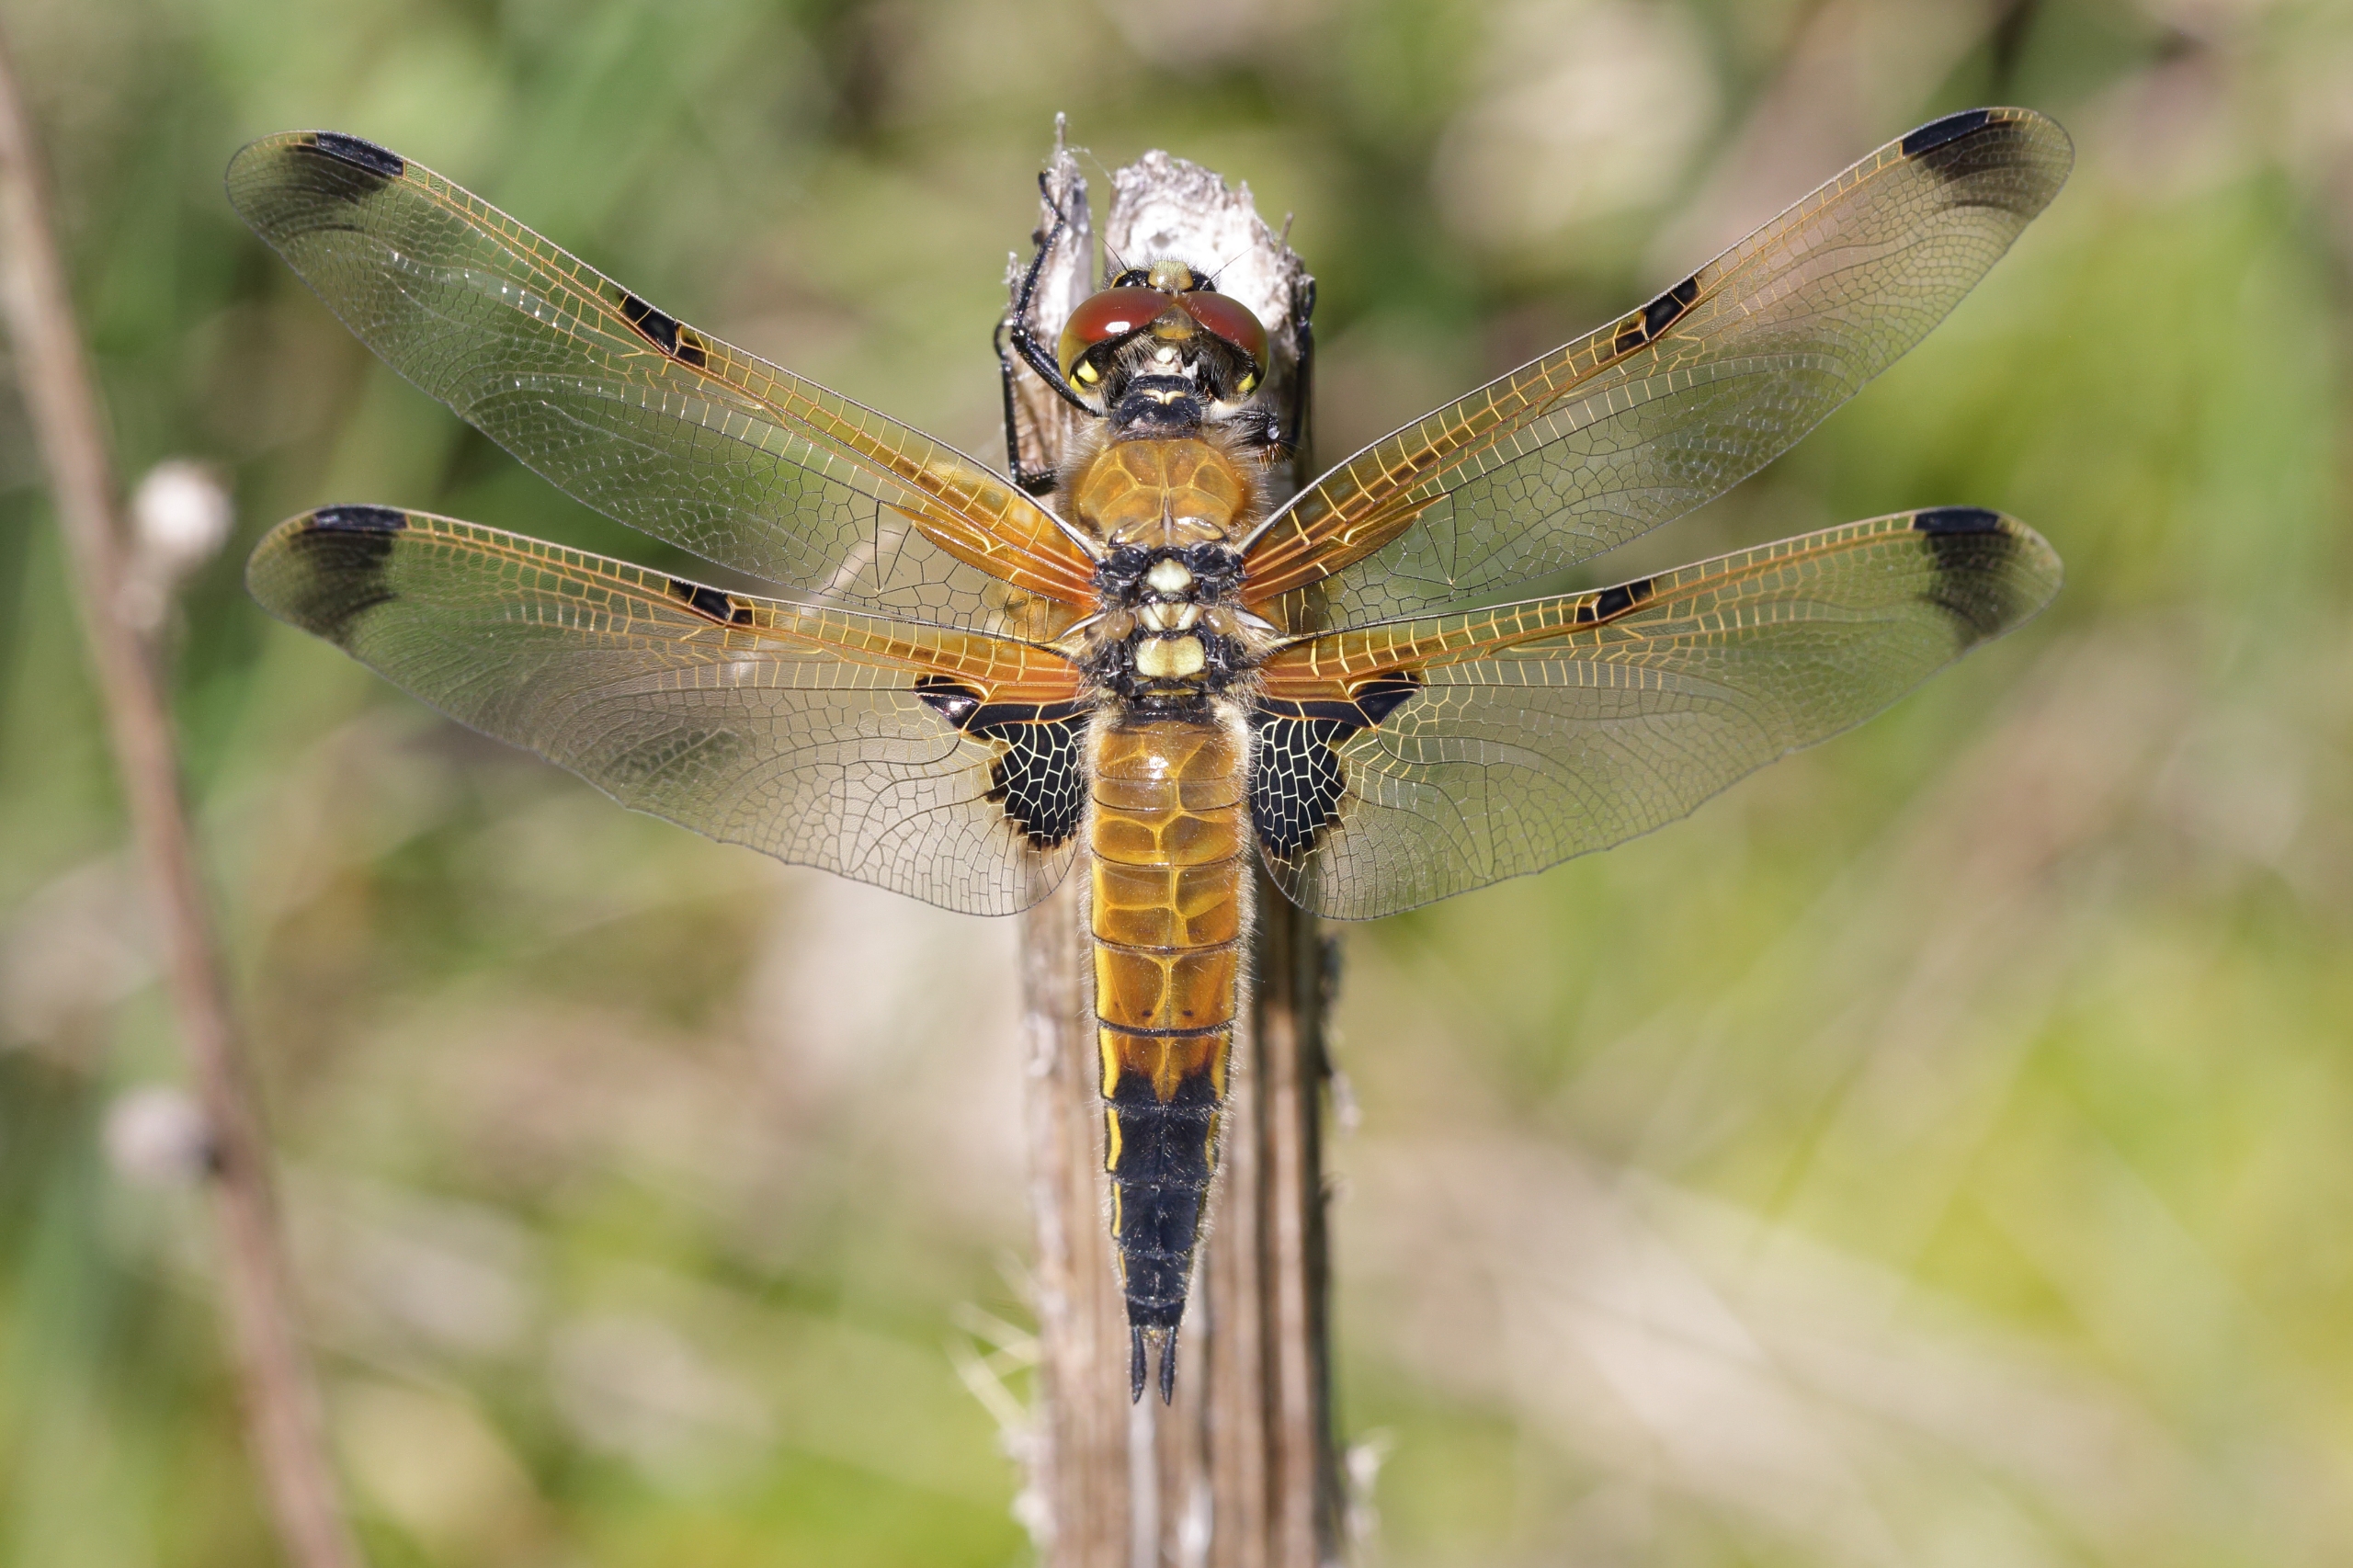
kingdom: Animalia
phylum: Arthropoda
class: Insecta
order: Odonata
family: Libellulidae
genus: Libellula
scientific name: Libellula quadrimaculata
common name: Fireplettet libel
